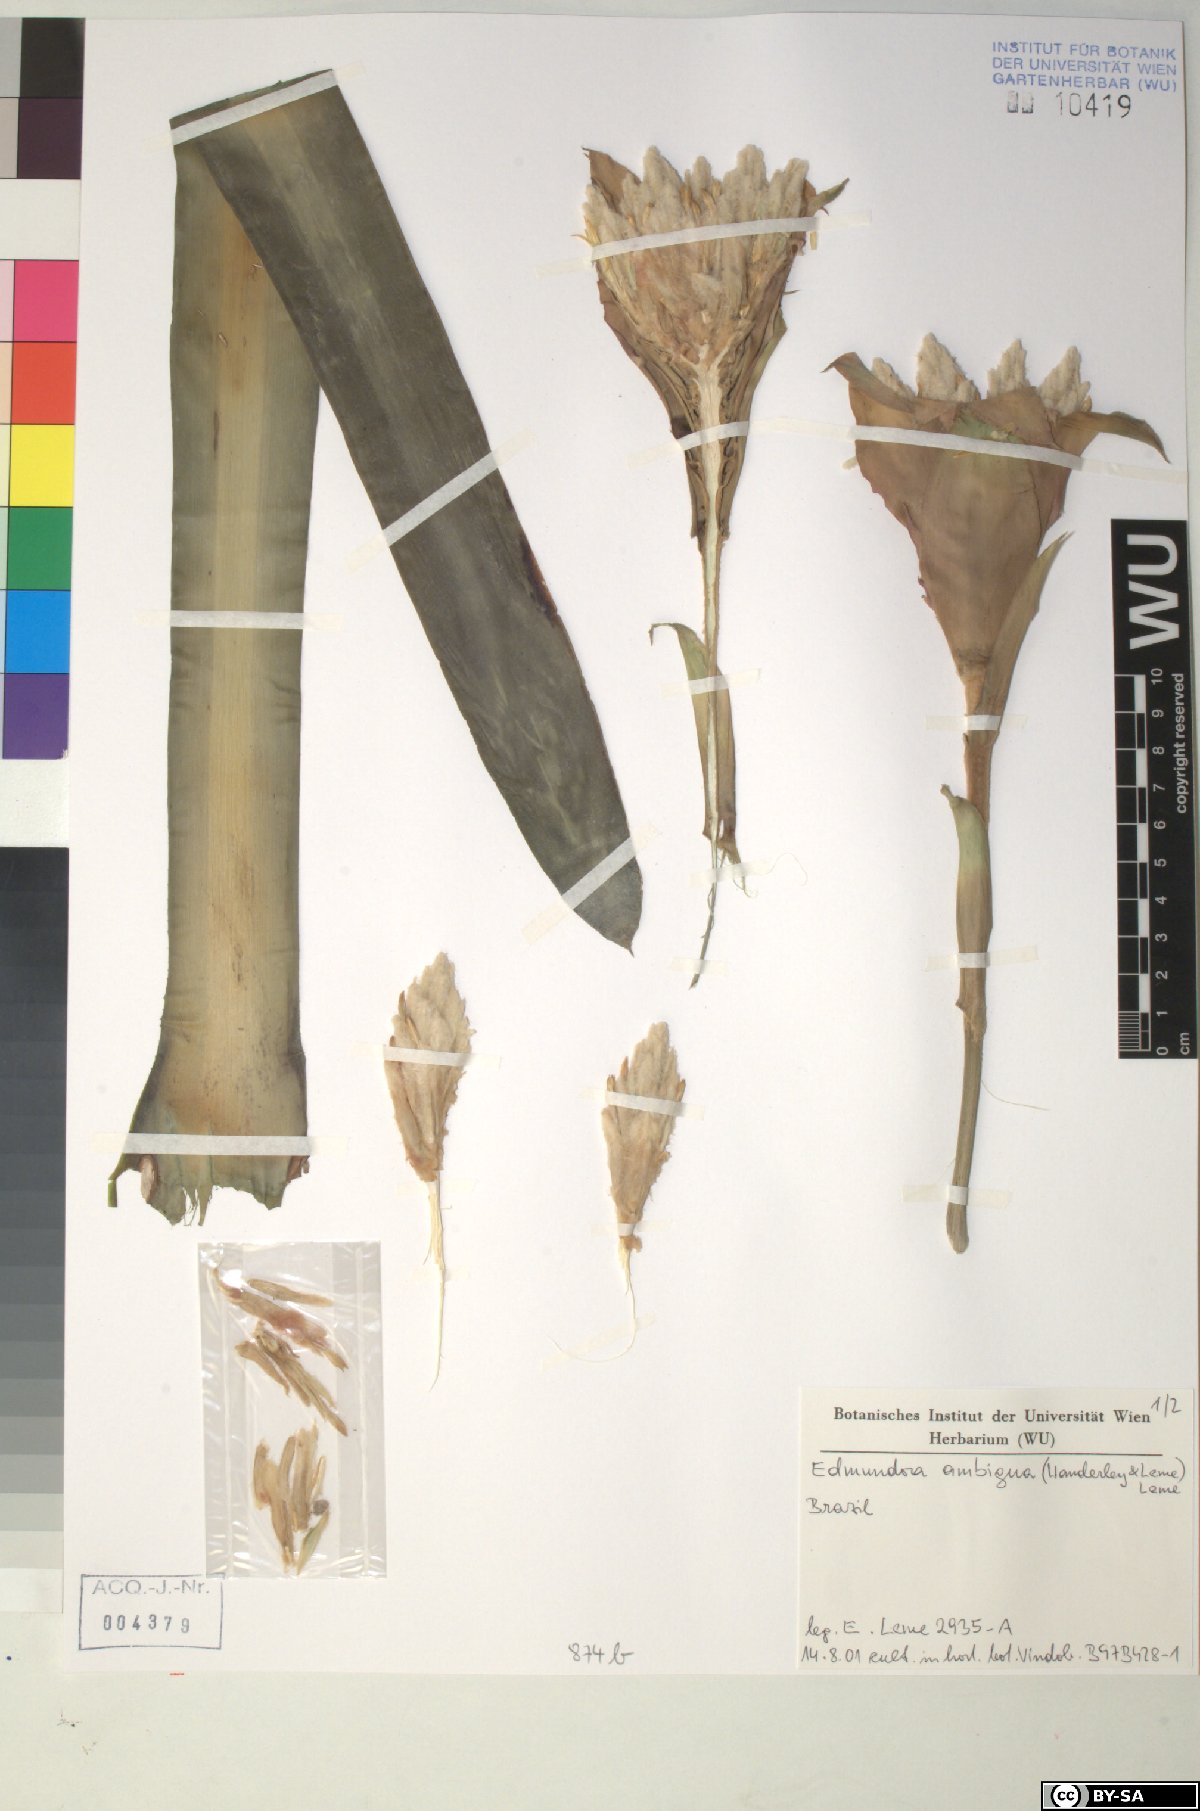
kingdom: Plantae
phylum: Tracheophyta
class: Liliopsida
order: Poales
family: Bromeliaceae
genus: Edmundoa
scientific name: Edmundoa ambigua
